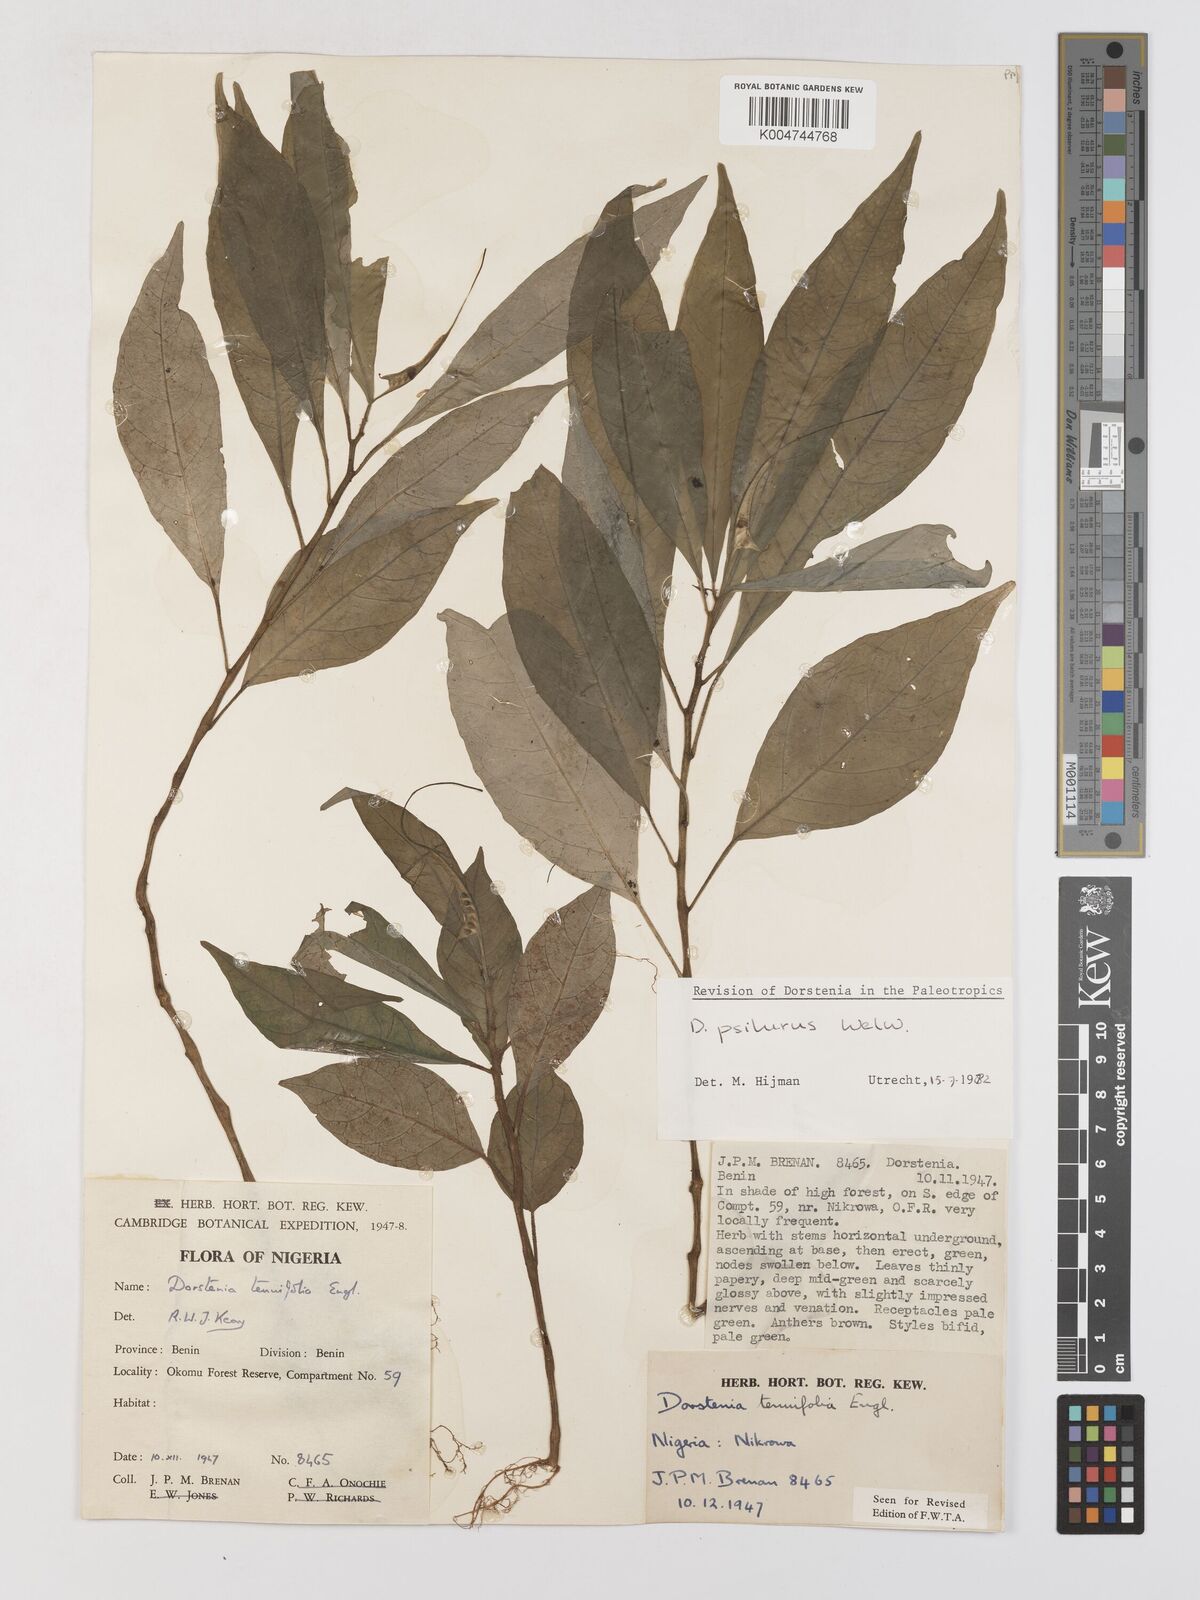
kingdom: Plantae
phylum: Tracheophyta
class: Magnoliopsida
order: Rosales
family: Moraceae
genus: Dorstenia
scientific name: Dorstenia psilurus
